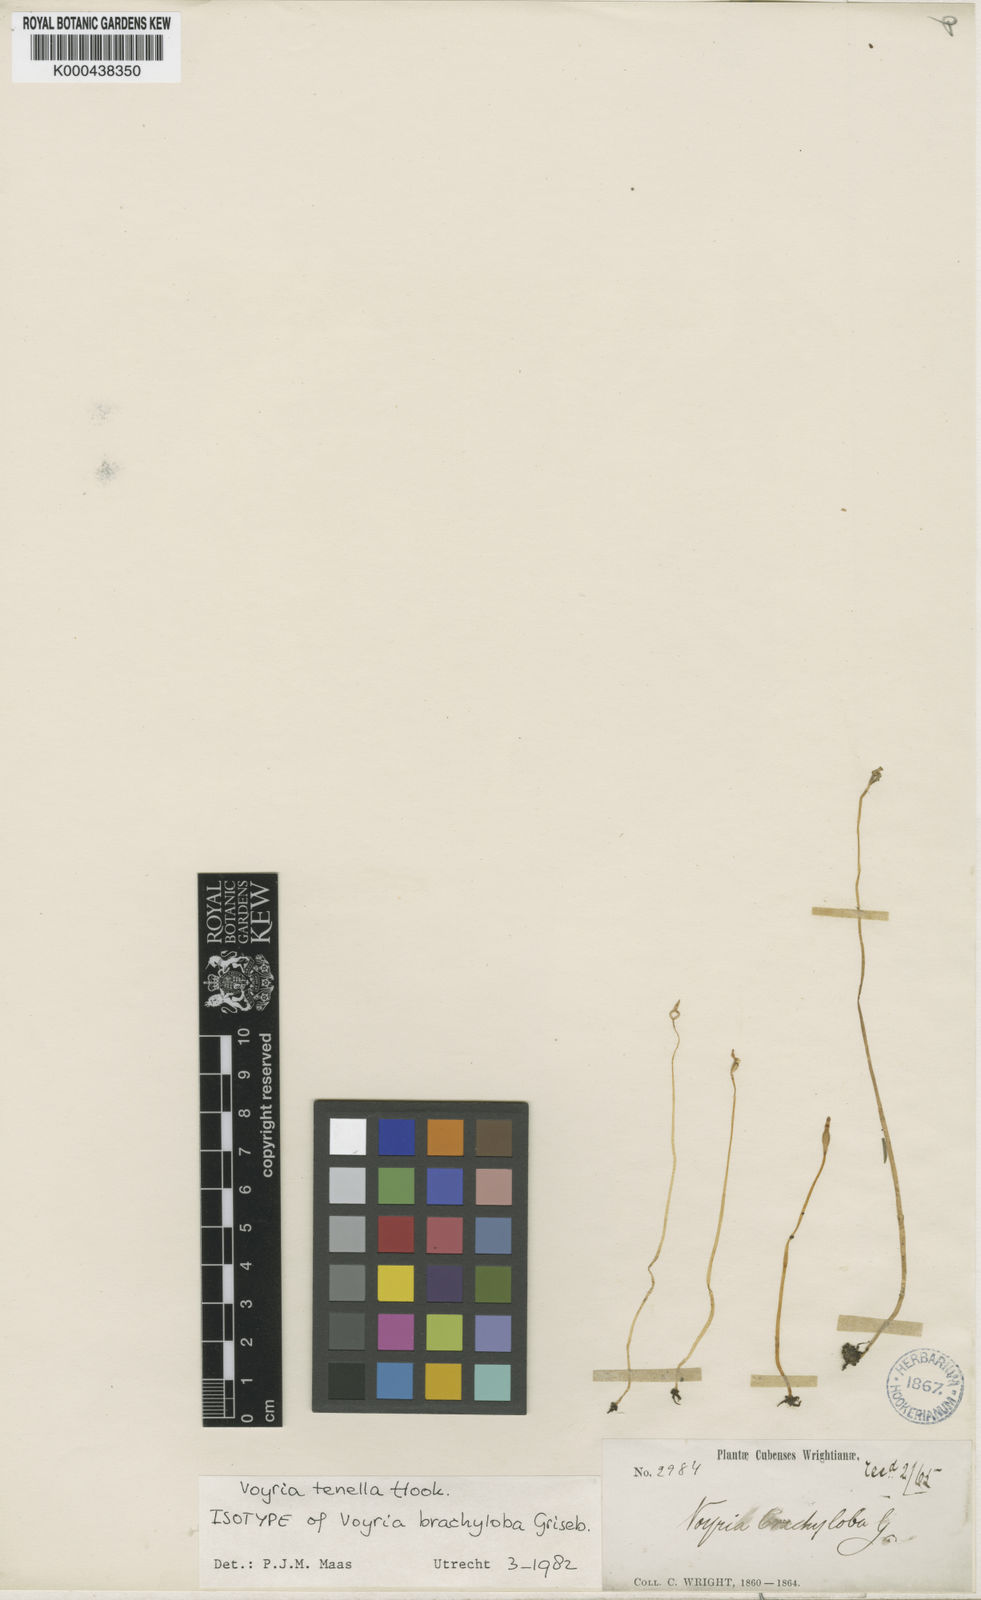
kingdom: Plantae
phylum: Tracheophyta
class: Magnoliopsida
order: Gentianales
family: Gentianaceae
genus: Voyria
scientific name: Voyria tenella
